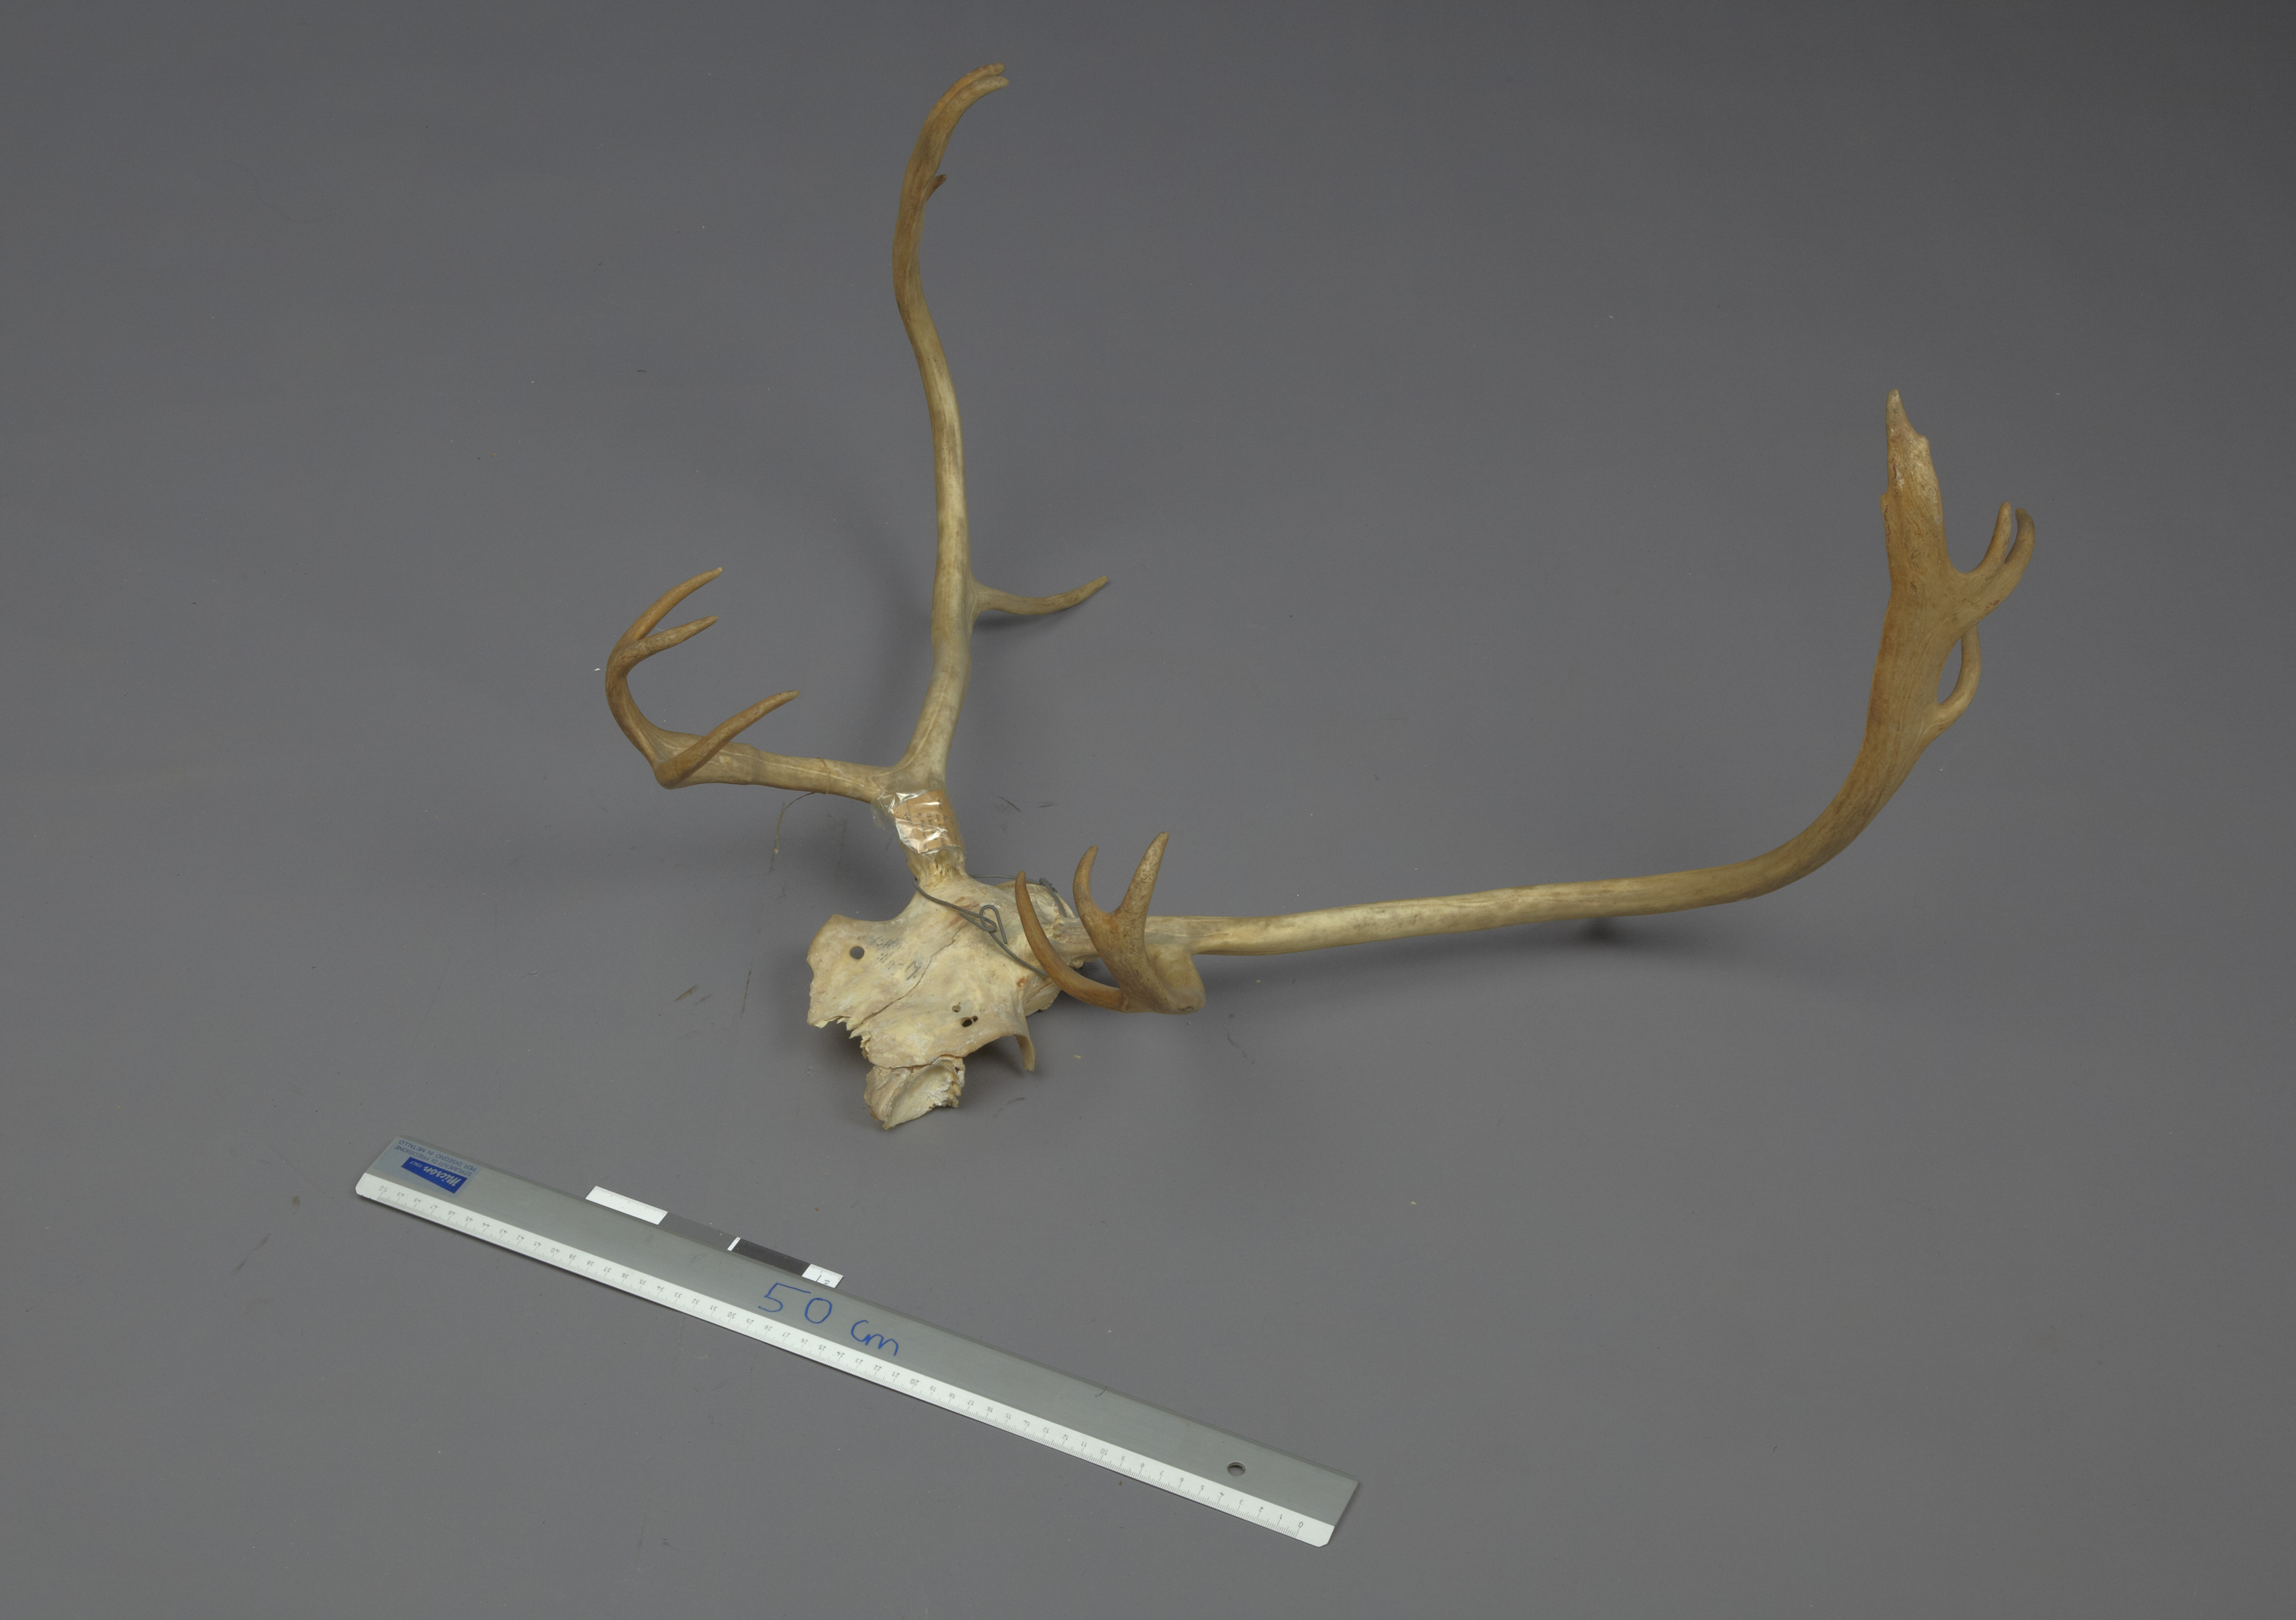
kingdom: Animalia
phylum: Chordata
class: Mammalia
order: Artiodactyla
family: Cervidae
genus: Rangifer
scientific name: Rangifer tarandus
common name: Reindeer
